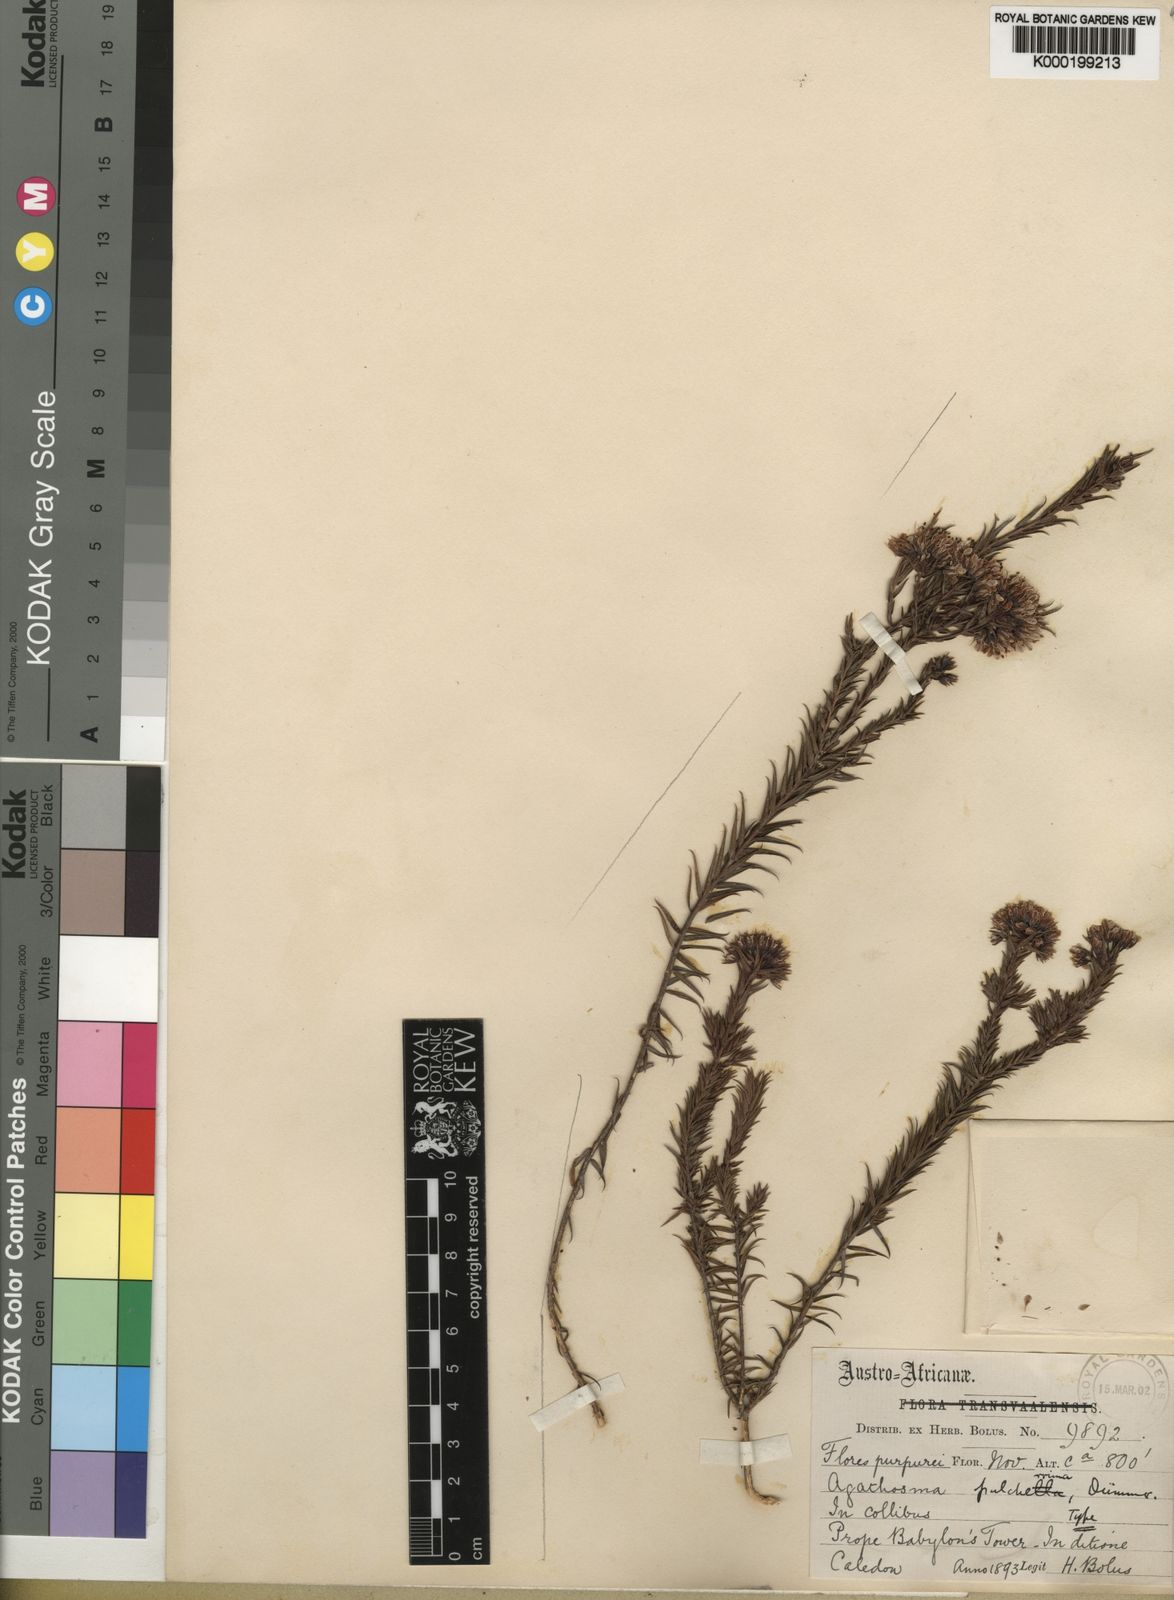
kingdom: Plantae
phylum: Tracheophyta
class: Magnoliopsida
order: Sapindales
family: Rutaceae
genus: Agathosma
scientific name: Agathosma
